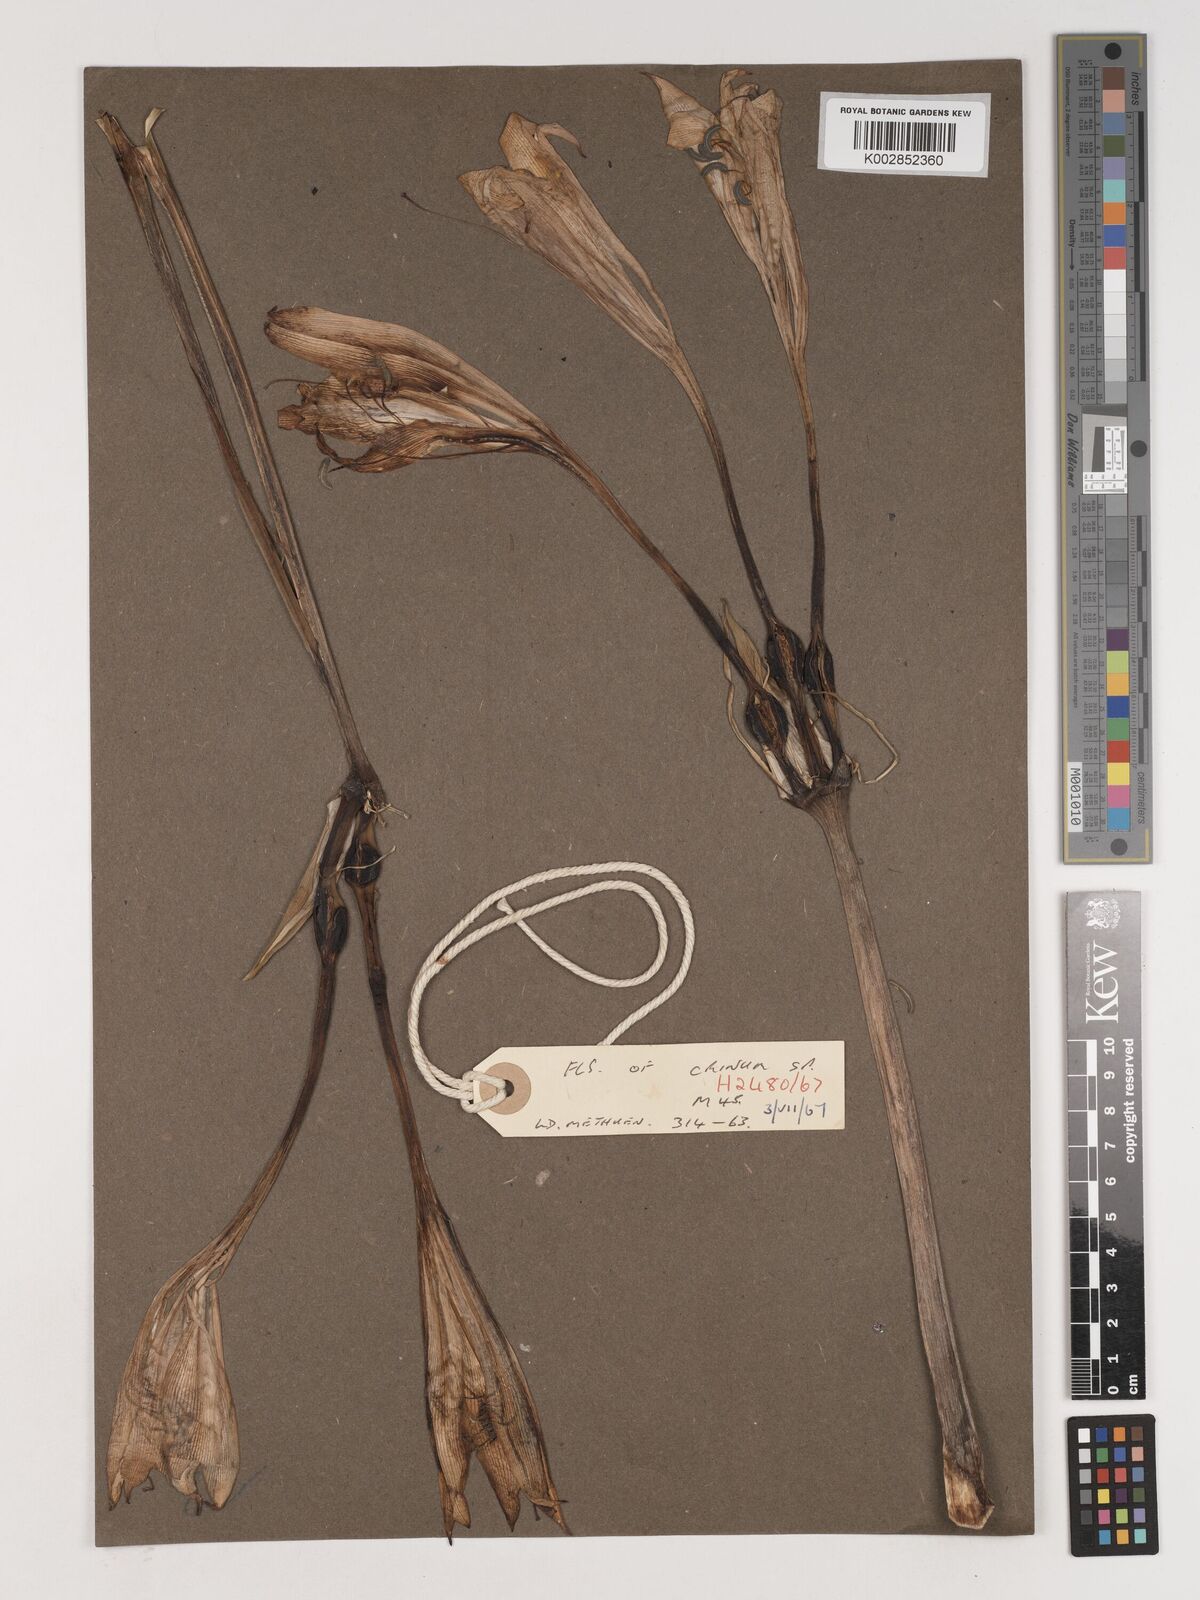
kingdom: Plantae
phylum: Tracheophyta
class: Liliopsida
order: Asparagales
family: Amaryllidaceae
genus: Crinum
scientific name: Crinum
